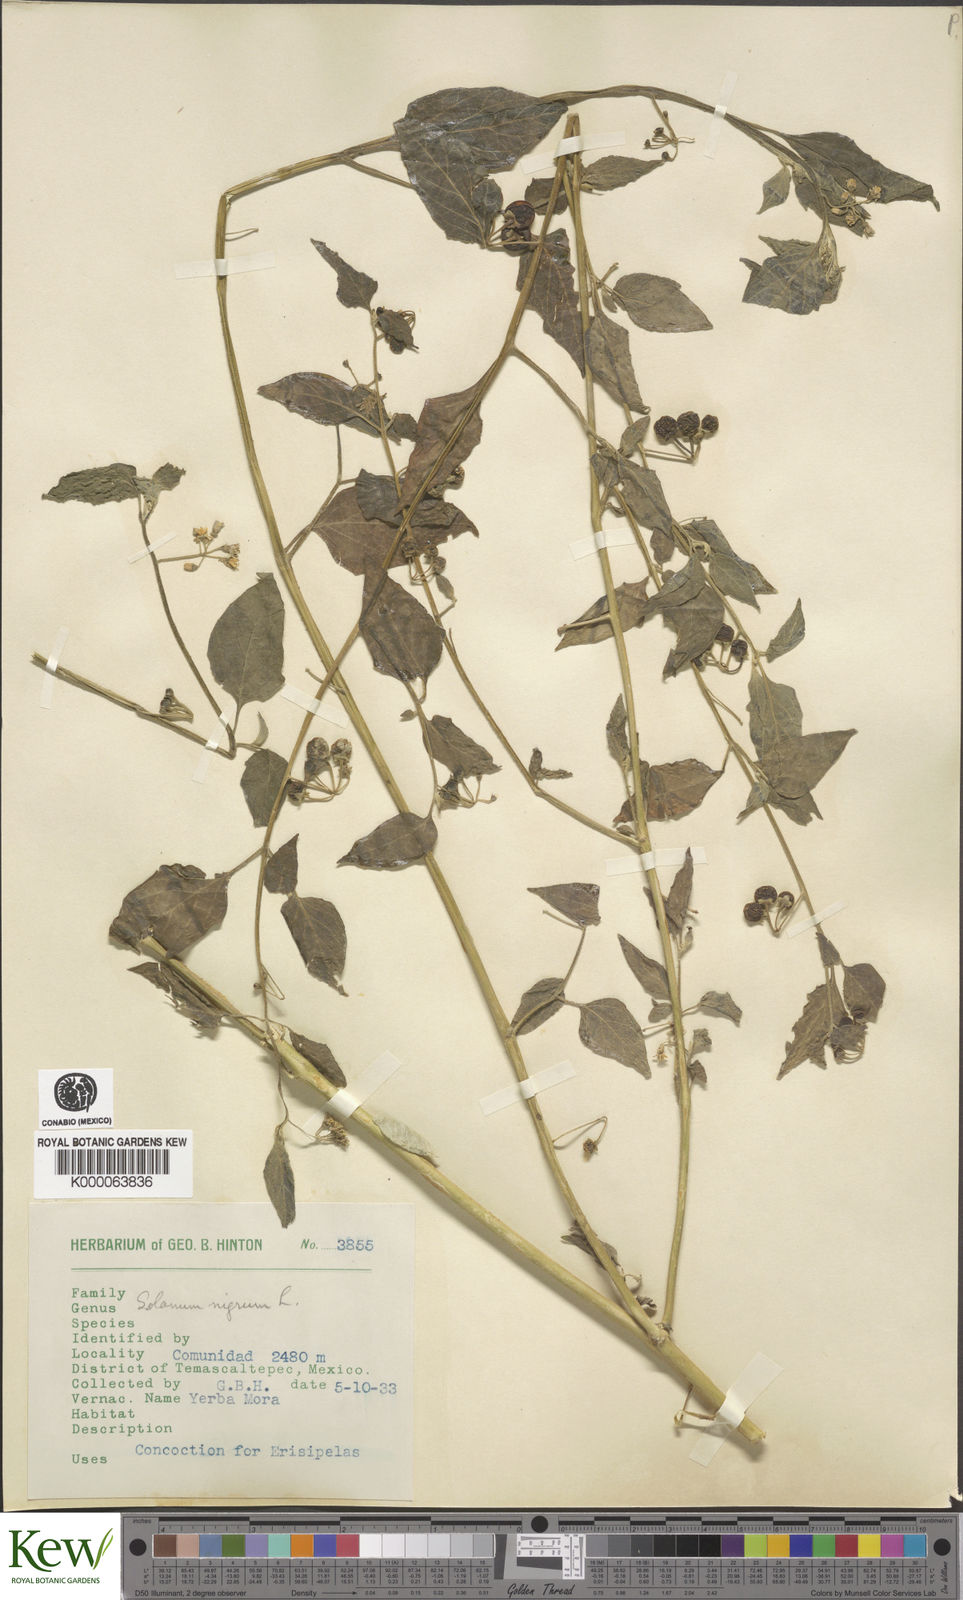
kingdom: Plantae
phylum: Tracheophyta
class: Magnoliopsida
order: Solanales
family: Solanaceae
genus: Solanum
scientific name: Solanum nigrum
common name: Black nightshade
